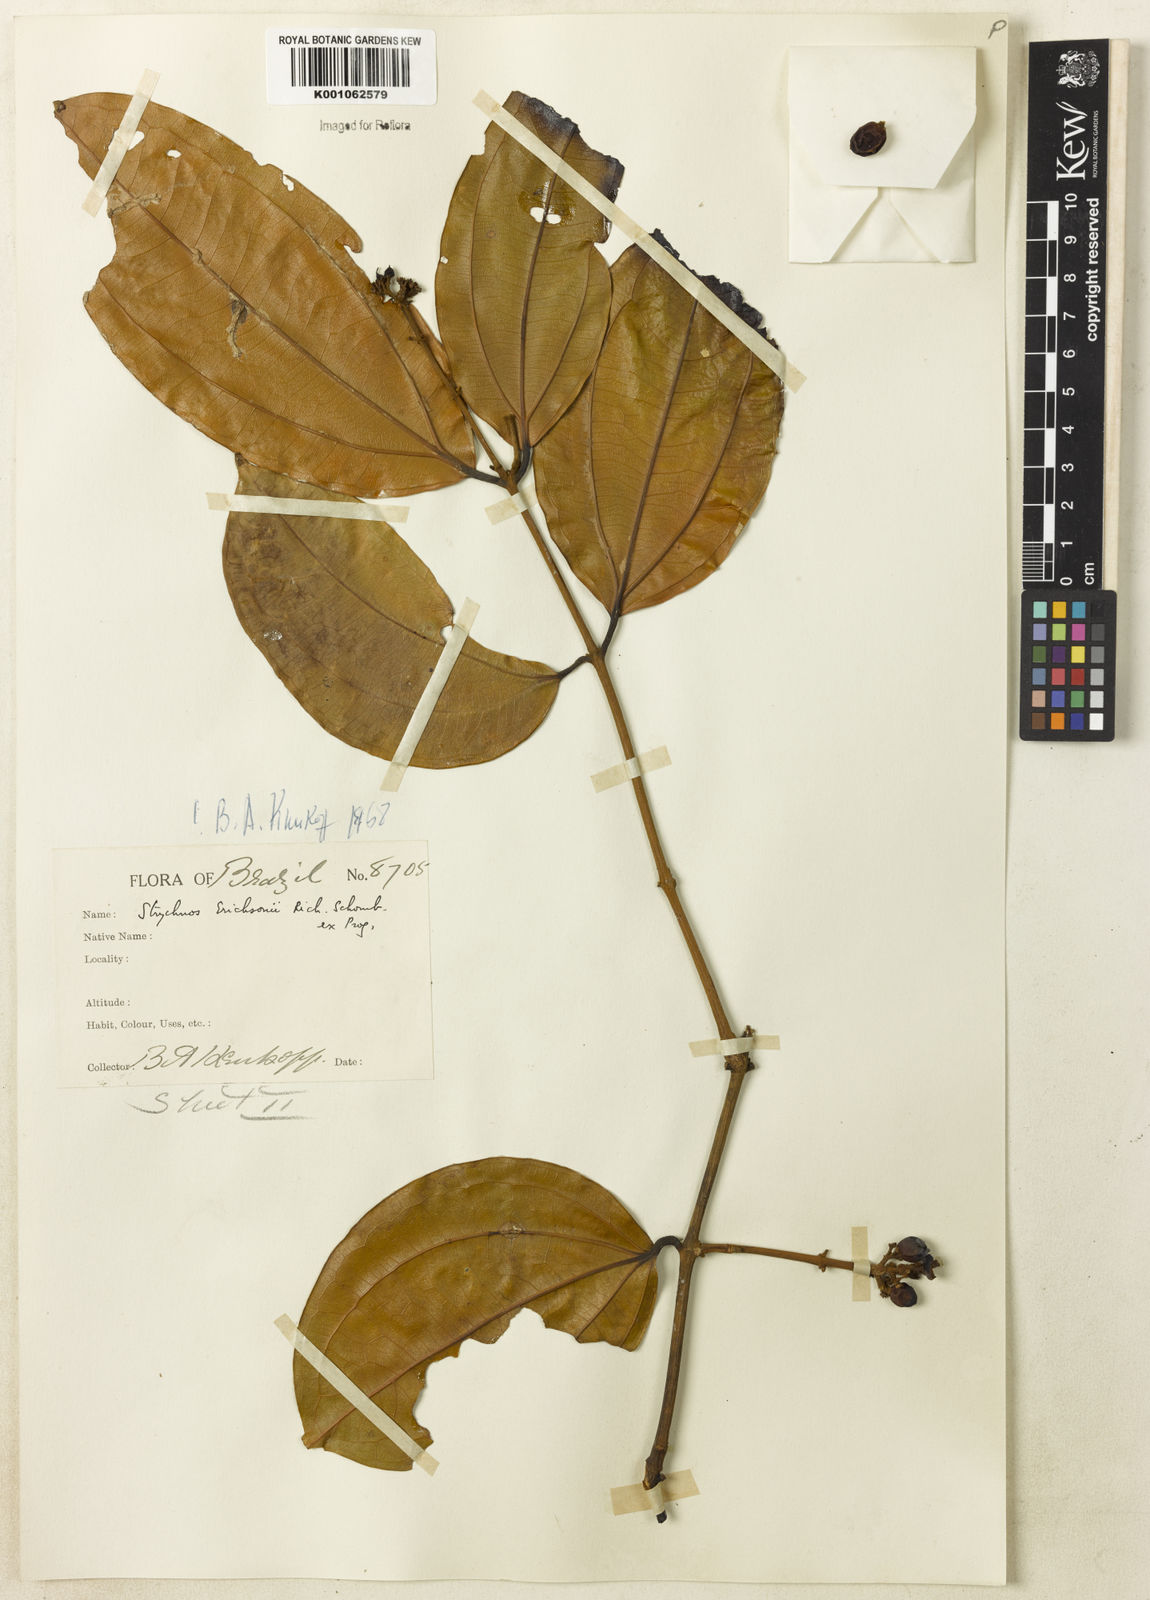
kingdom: Plantae
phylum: Tracheophyta
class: Magnoliopsida
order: Gentianales
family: Loganiaceae
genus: Strychnos
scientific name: Strychnos erichsonii
